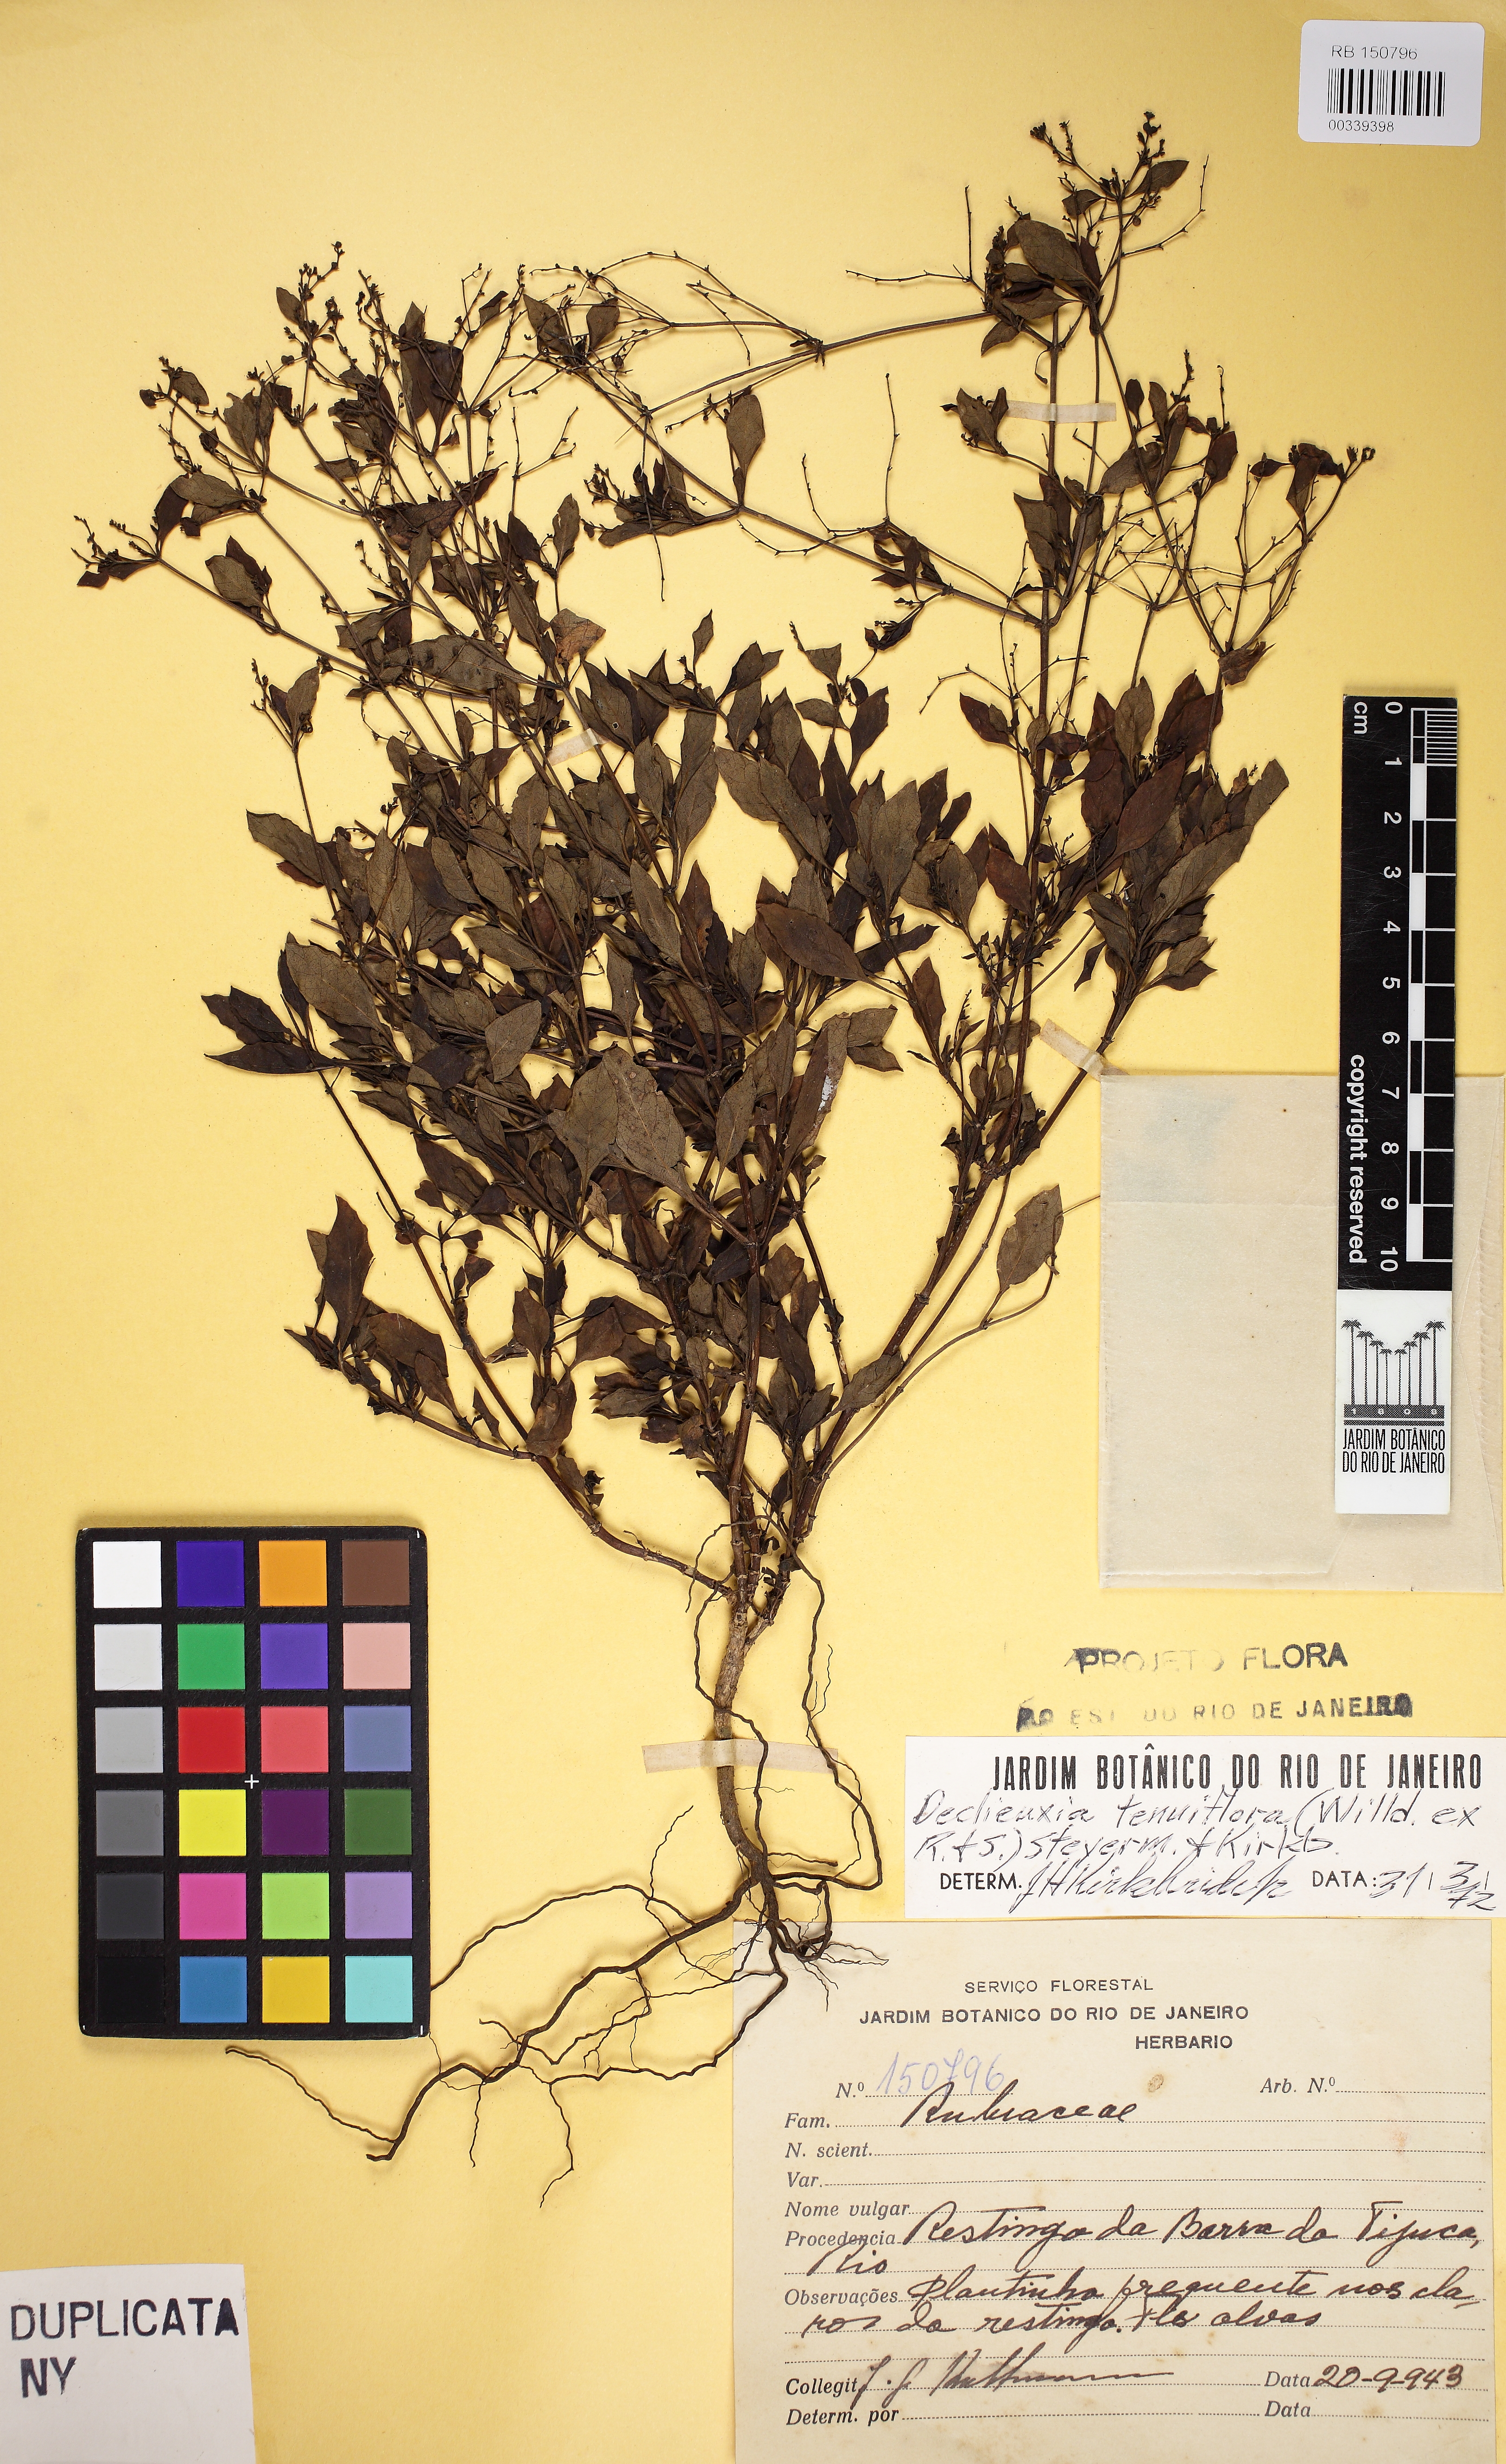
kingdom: Plantae
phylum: Tracheophyta
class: Magnoliopsida
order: Gentianales
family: Rubiaceae
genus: Declieuxia
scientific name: Declieuxia tenuiflora
